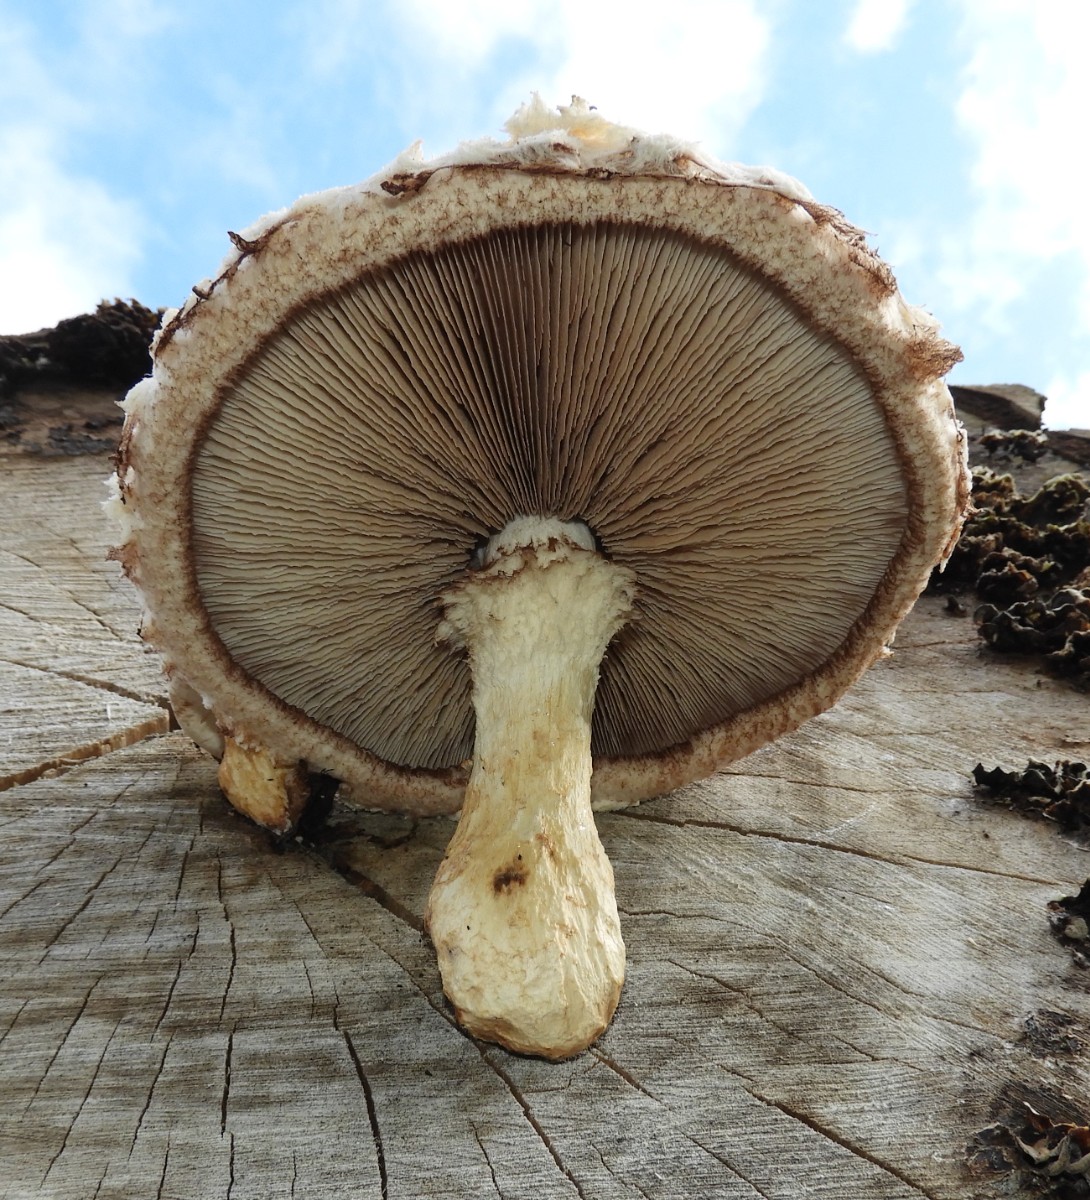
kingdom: Fungi
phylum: Basidiomycota
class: Agaricomycetes
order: Agaricales
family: Strophariaceae
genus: Pholiota
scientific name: Pholiota populnea
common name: poppel-kæmpeskælhat
